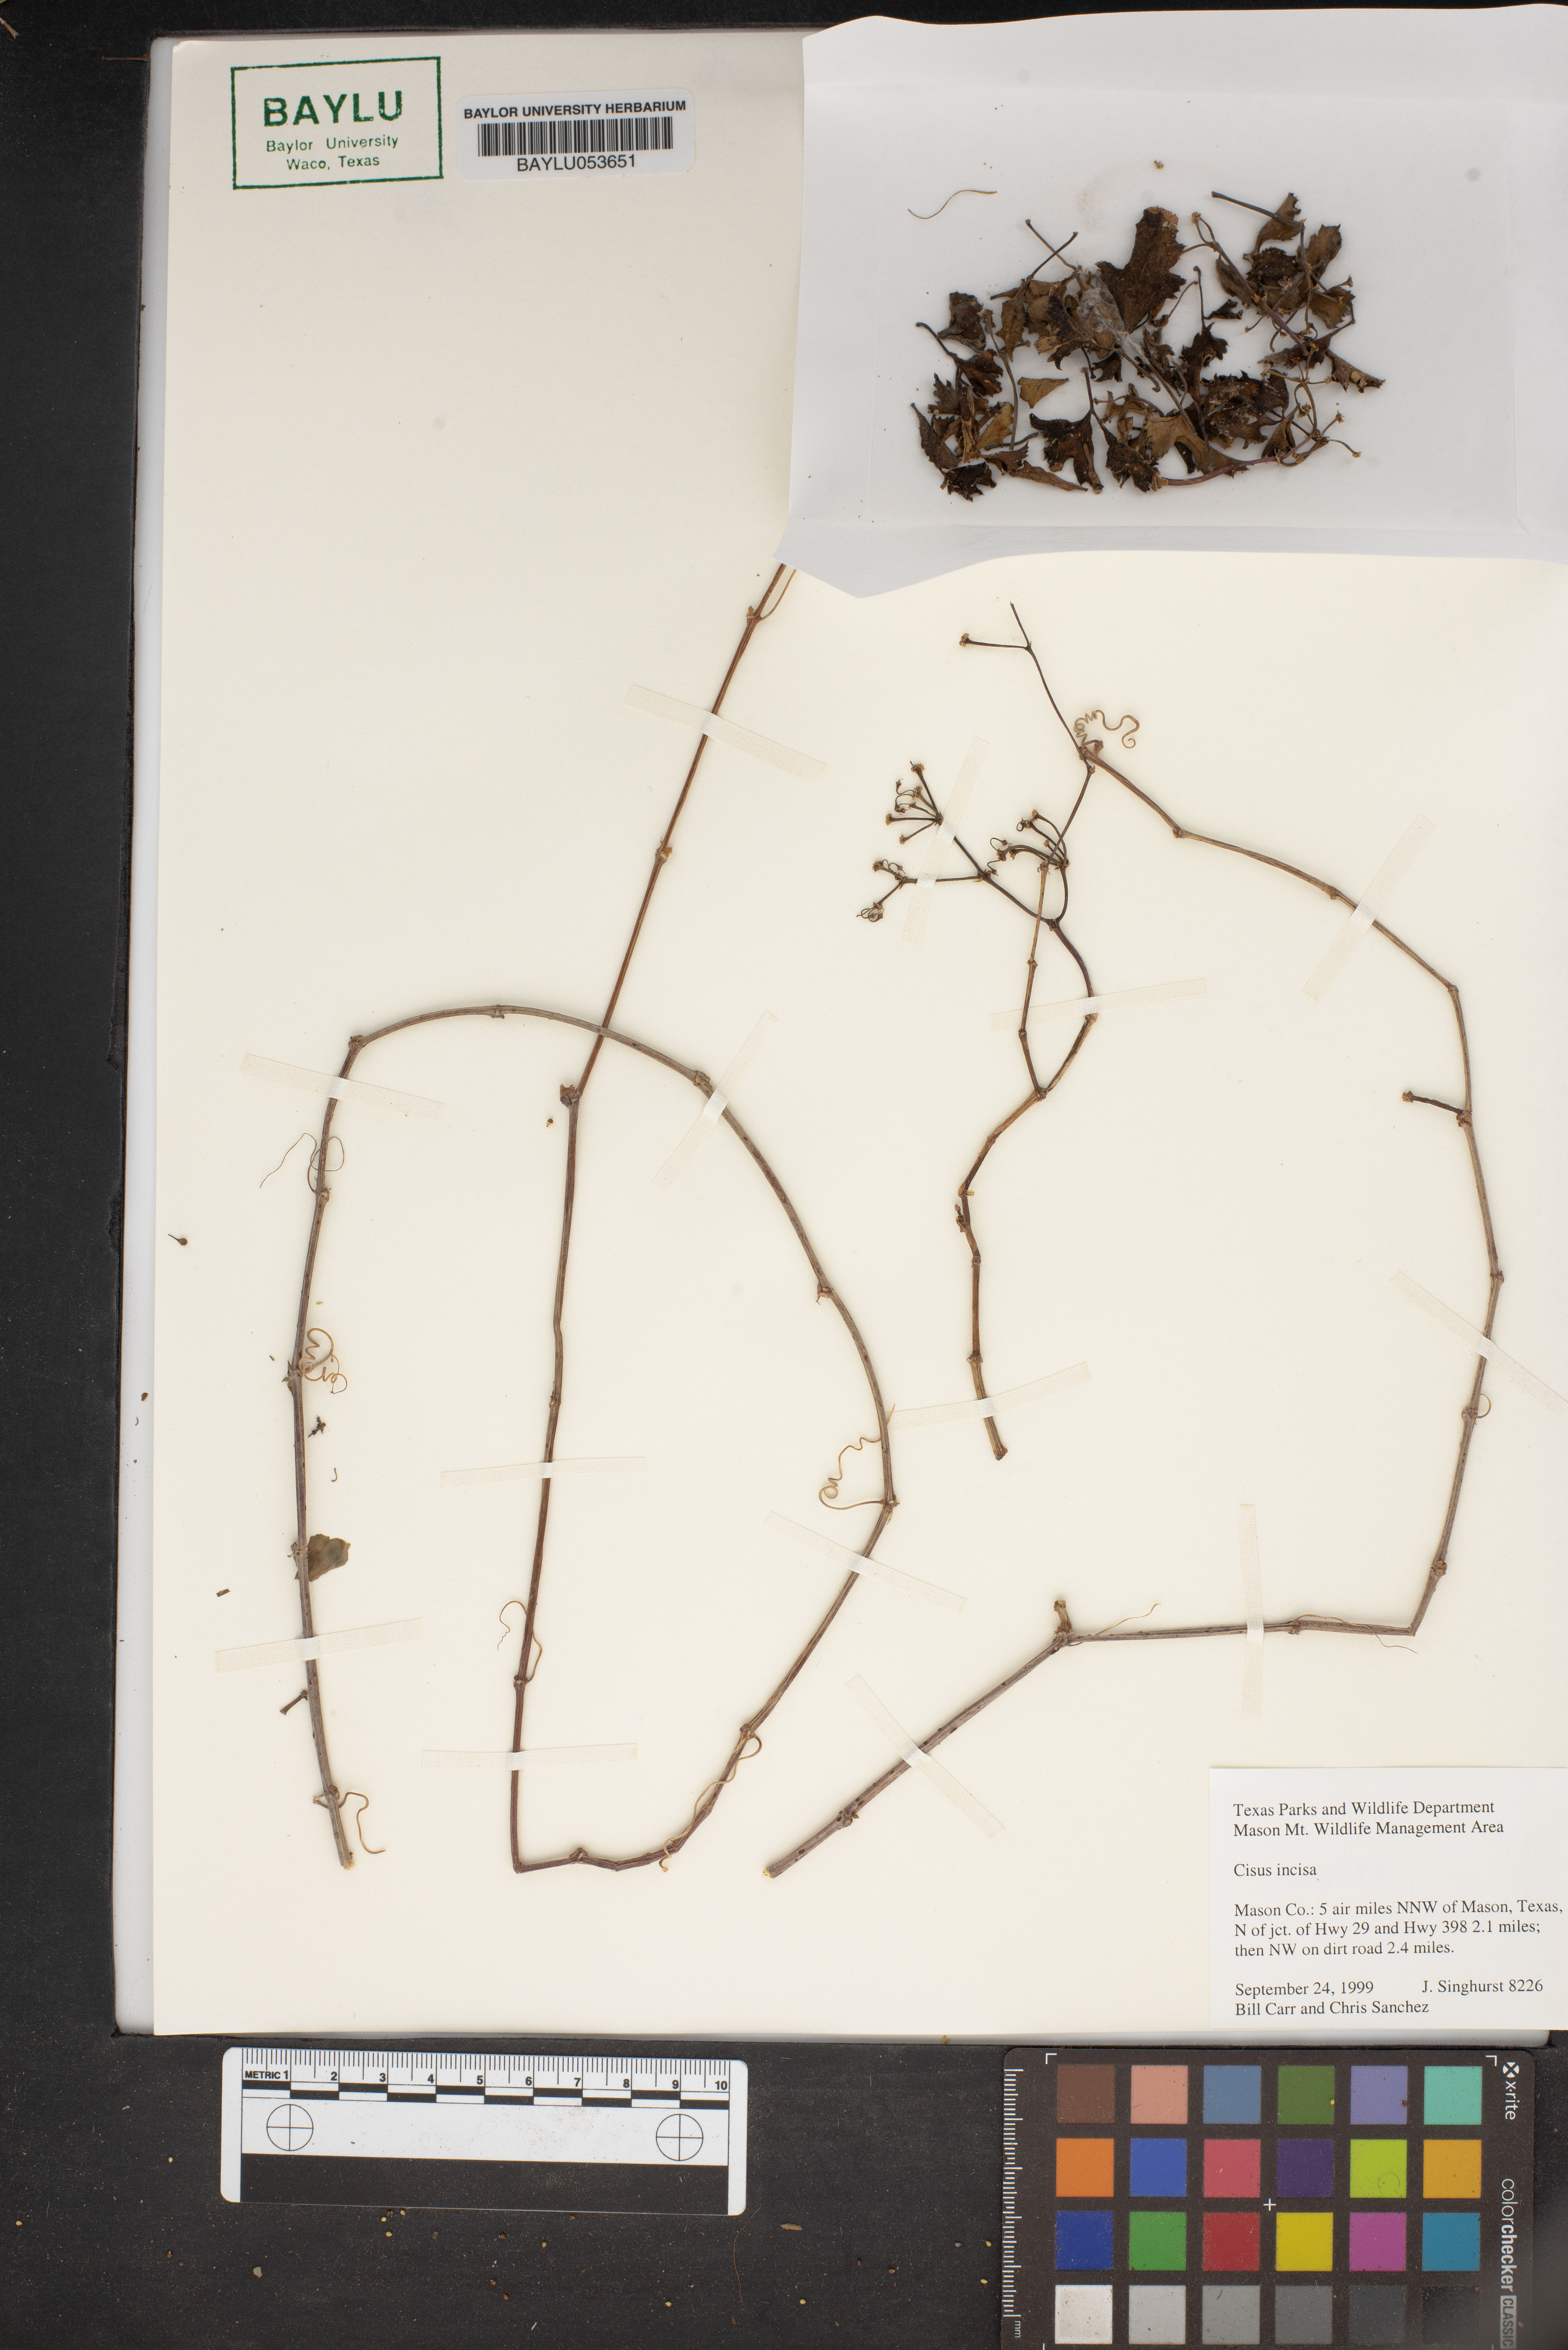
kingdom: Plantae
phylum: Tracheophyta
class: Magnoliopsida
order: Vitales
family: Vitaceae
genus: Cissus
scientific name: Cissus trifoliata
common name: Vine-sorrel
